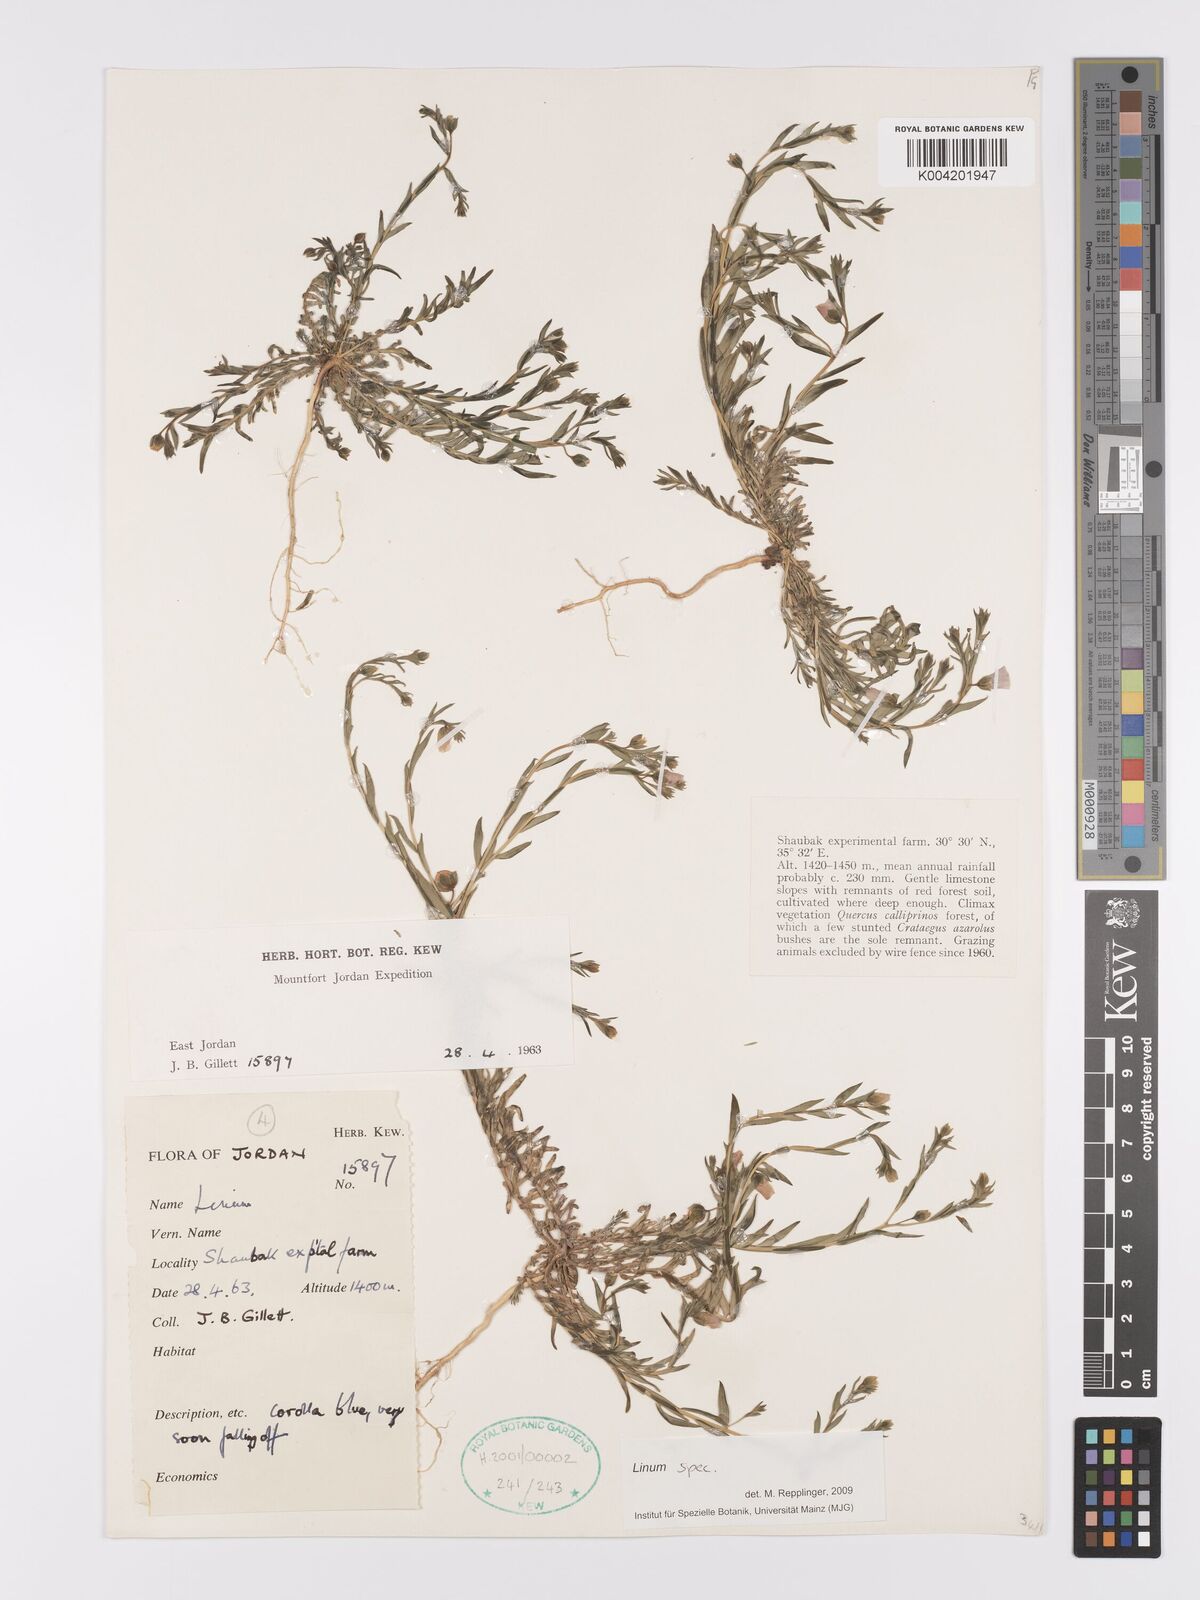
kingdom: Plantae
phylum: Tracheophyta
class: Magnoliopsida
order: Malpighiales
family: Linaceae
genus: Linum
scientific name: Linum
